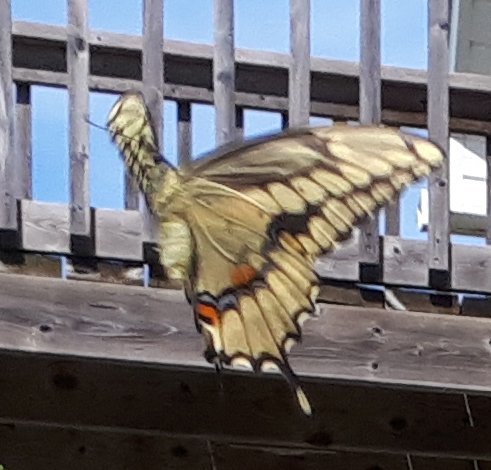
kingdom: Animalia
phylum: Arthropoda
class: Insecta
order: Lepidoptera
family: Papilionidae
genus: Papilio
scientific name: Papilio cresphontes
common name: Eastern Giant Swallowtail
